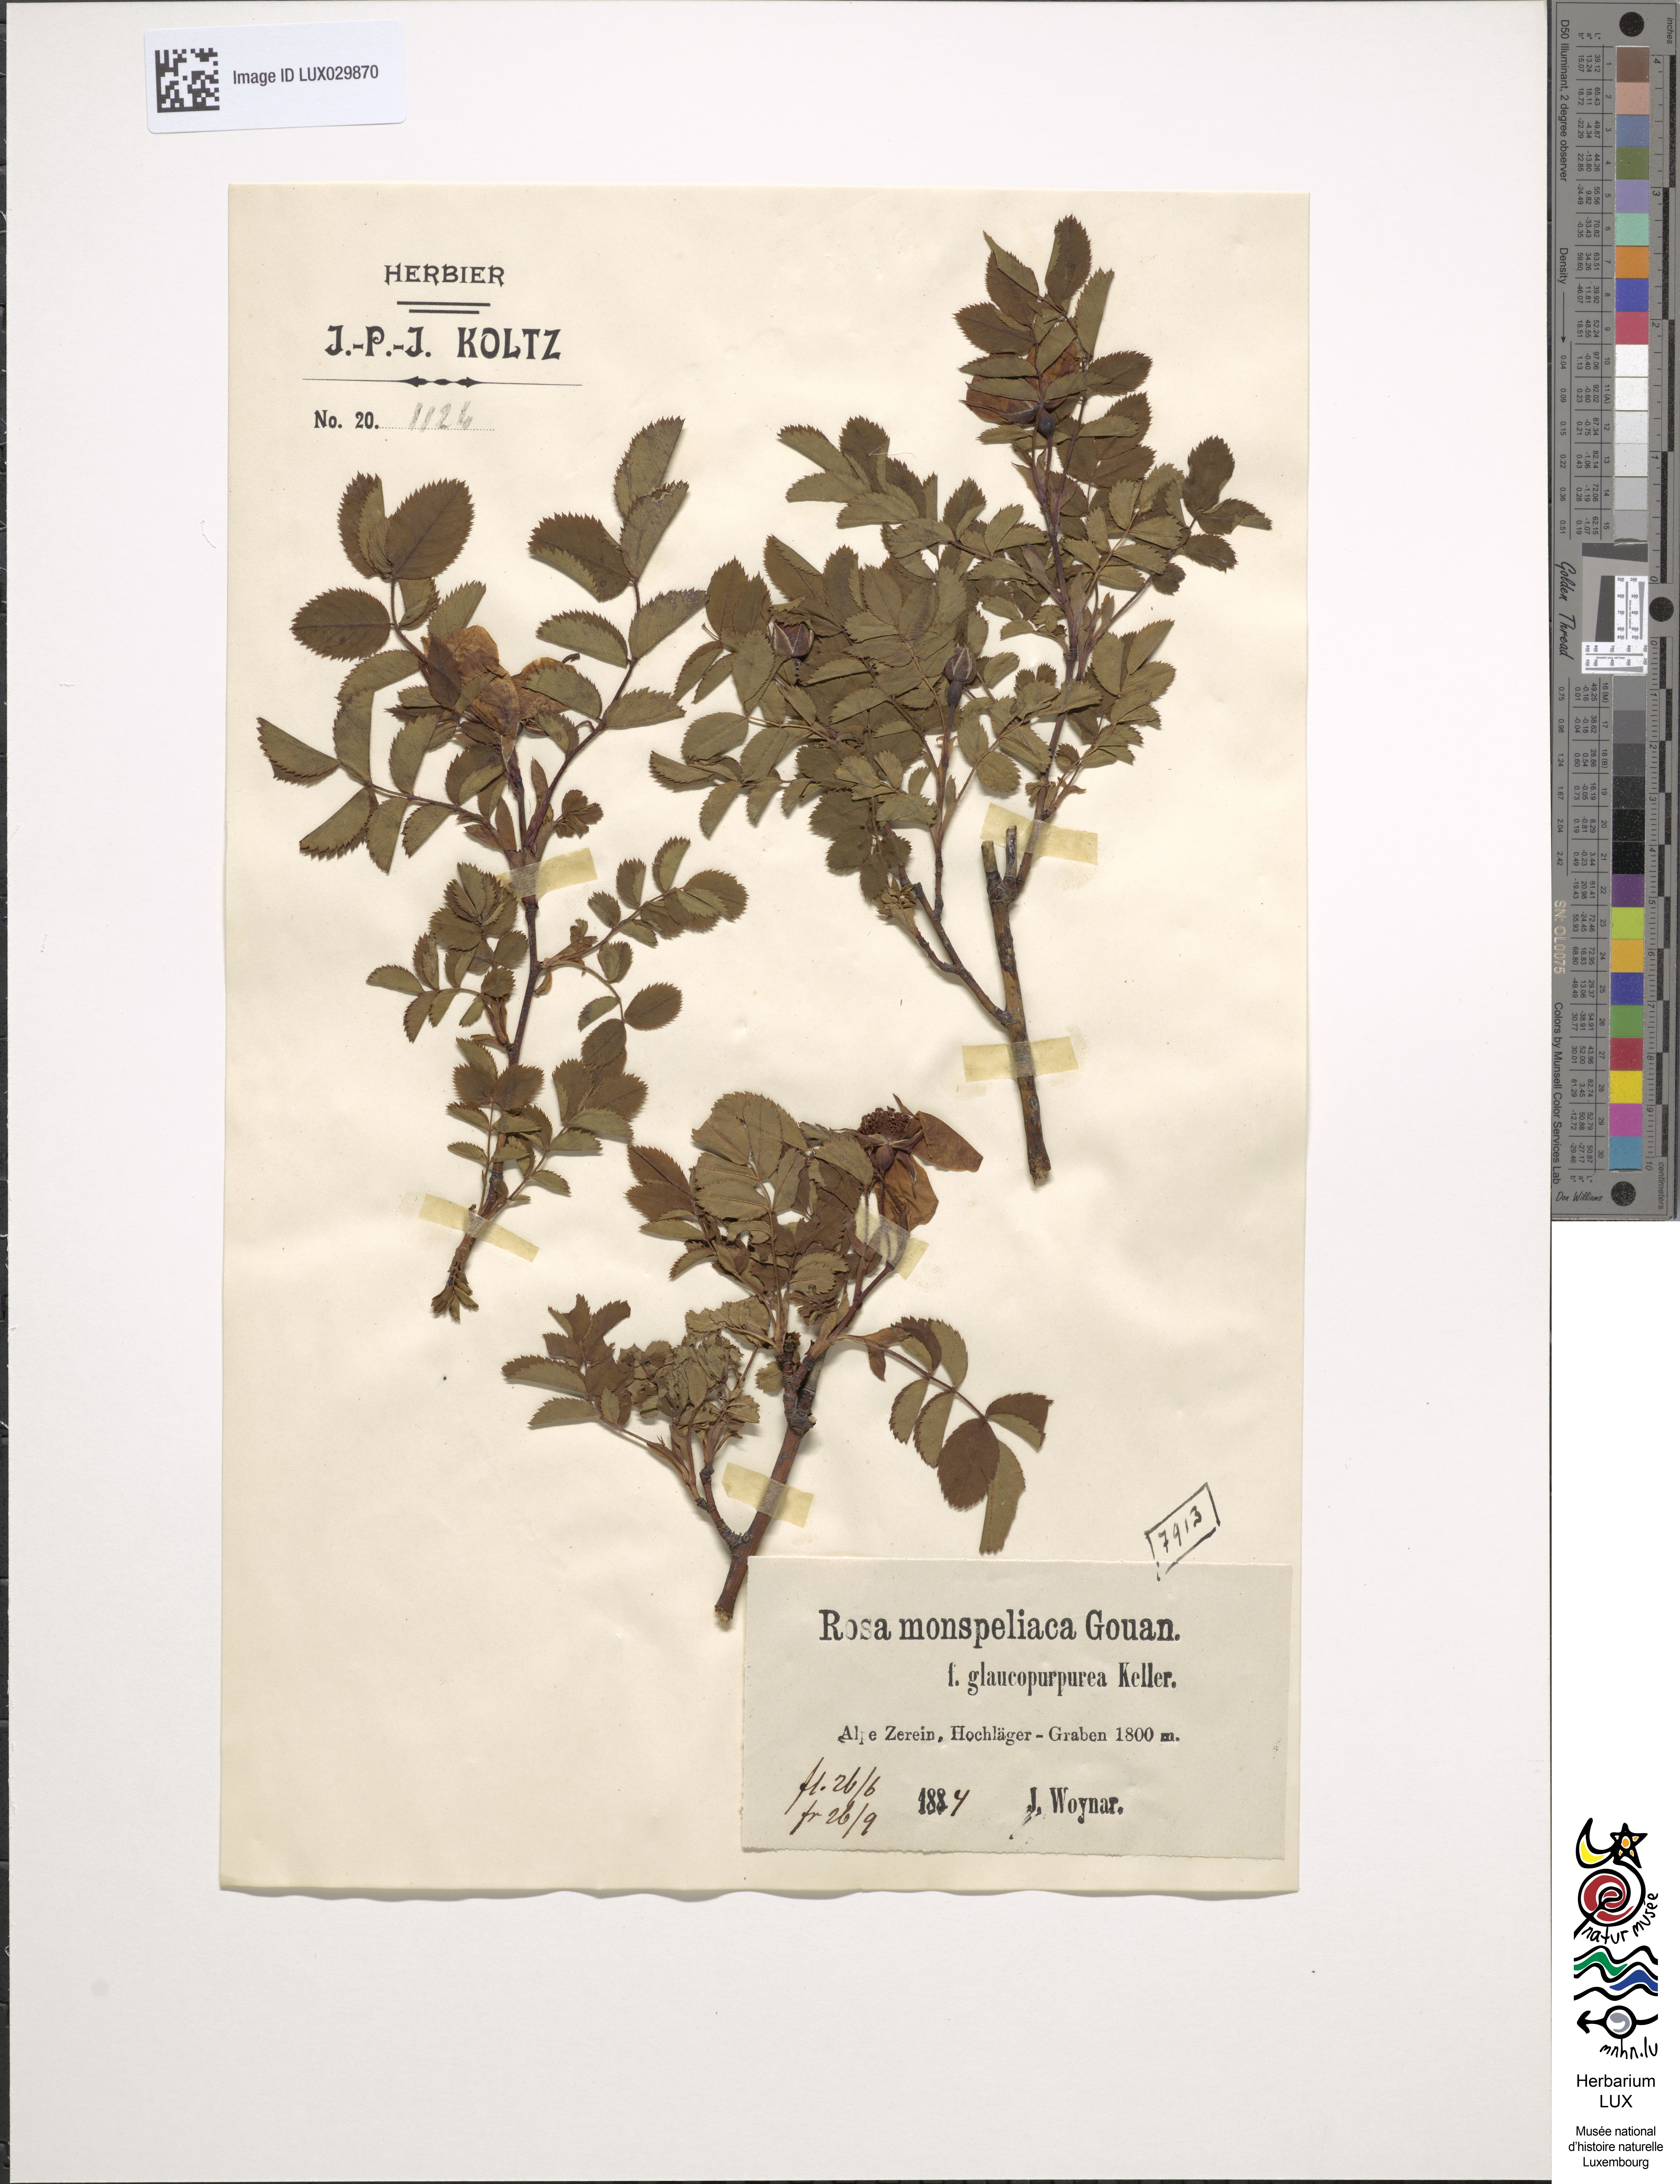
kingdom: Plantae
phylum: Tracheophyta
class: Magnoliopsida
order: Rosales
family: Rosaceae
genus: Rosa
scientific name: Rosa pendulina
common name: Alpine rose
